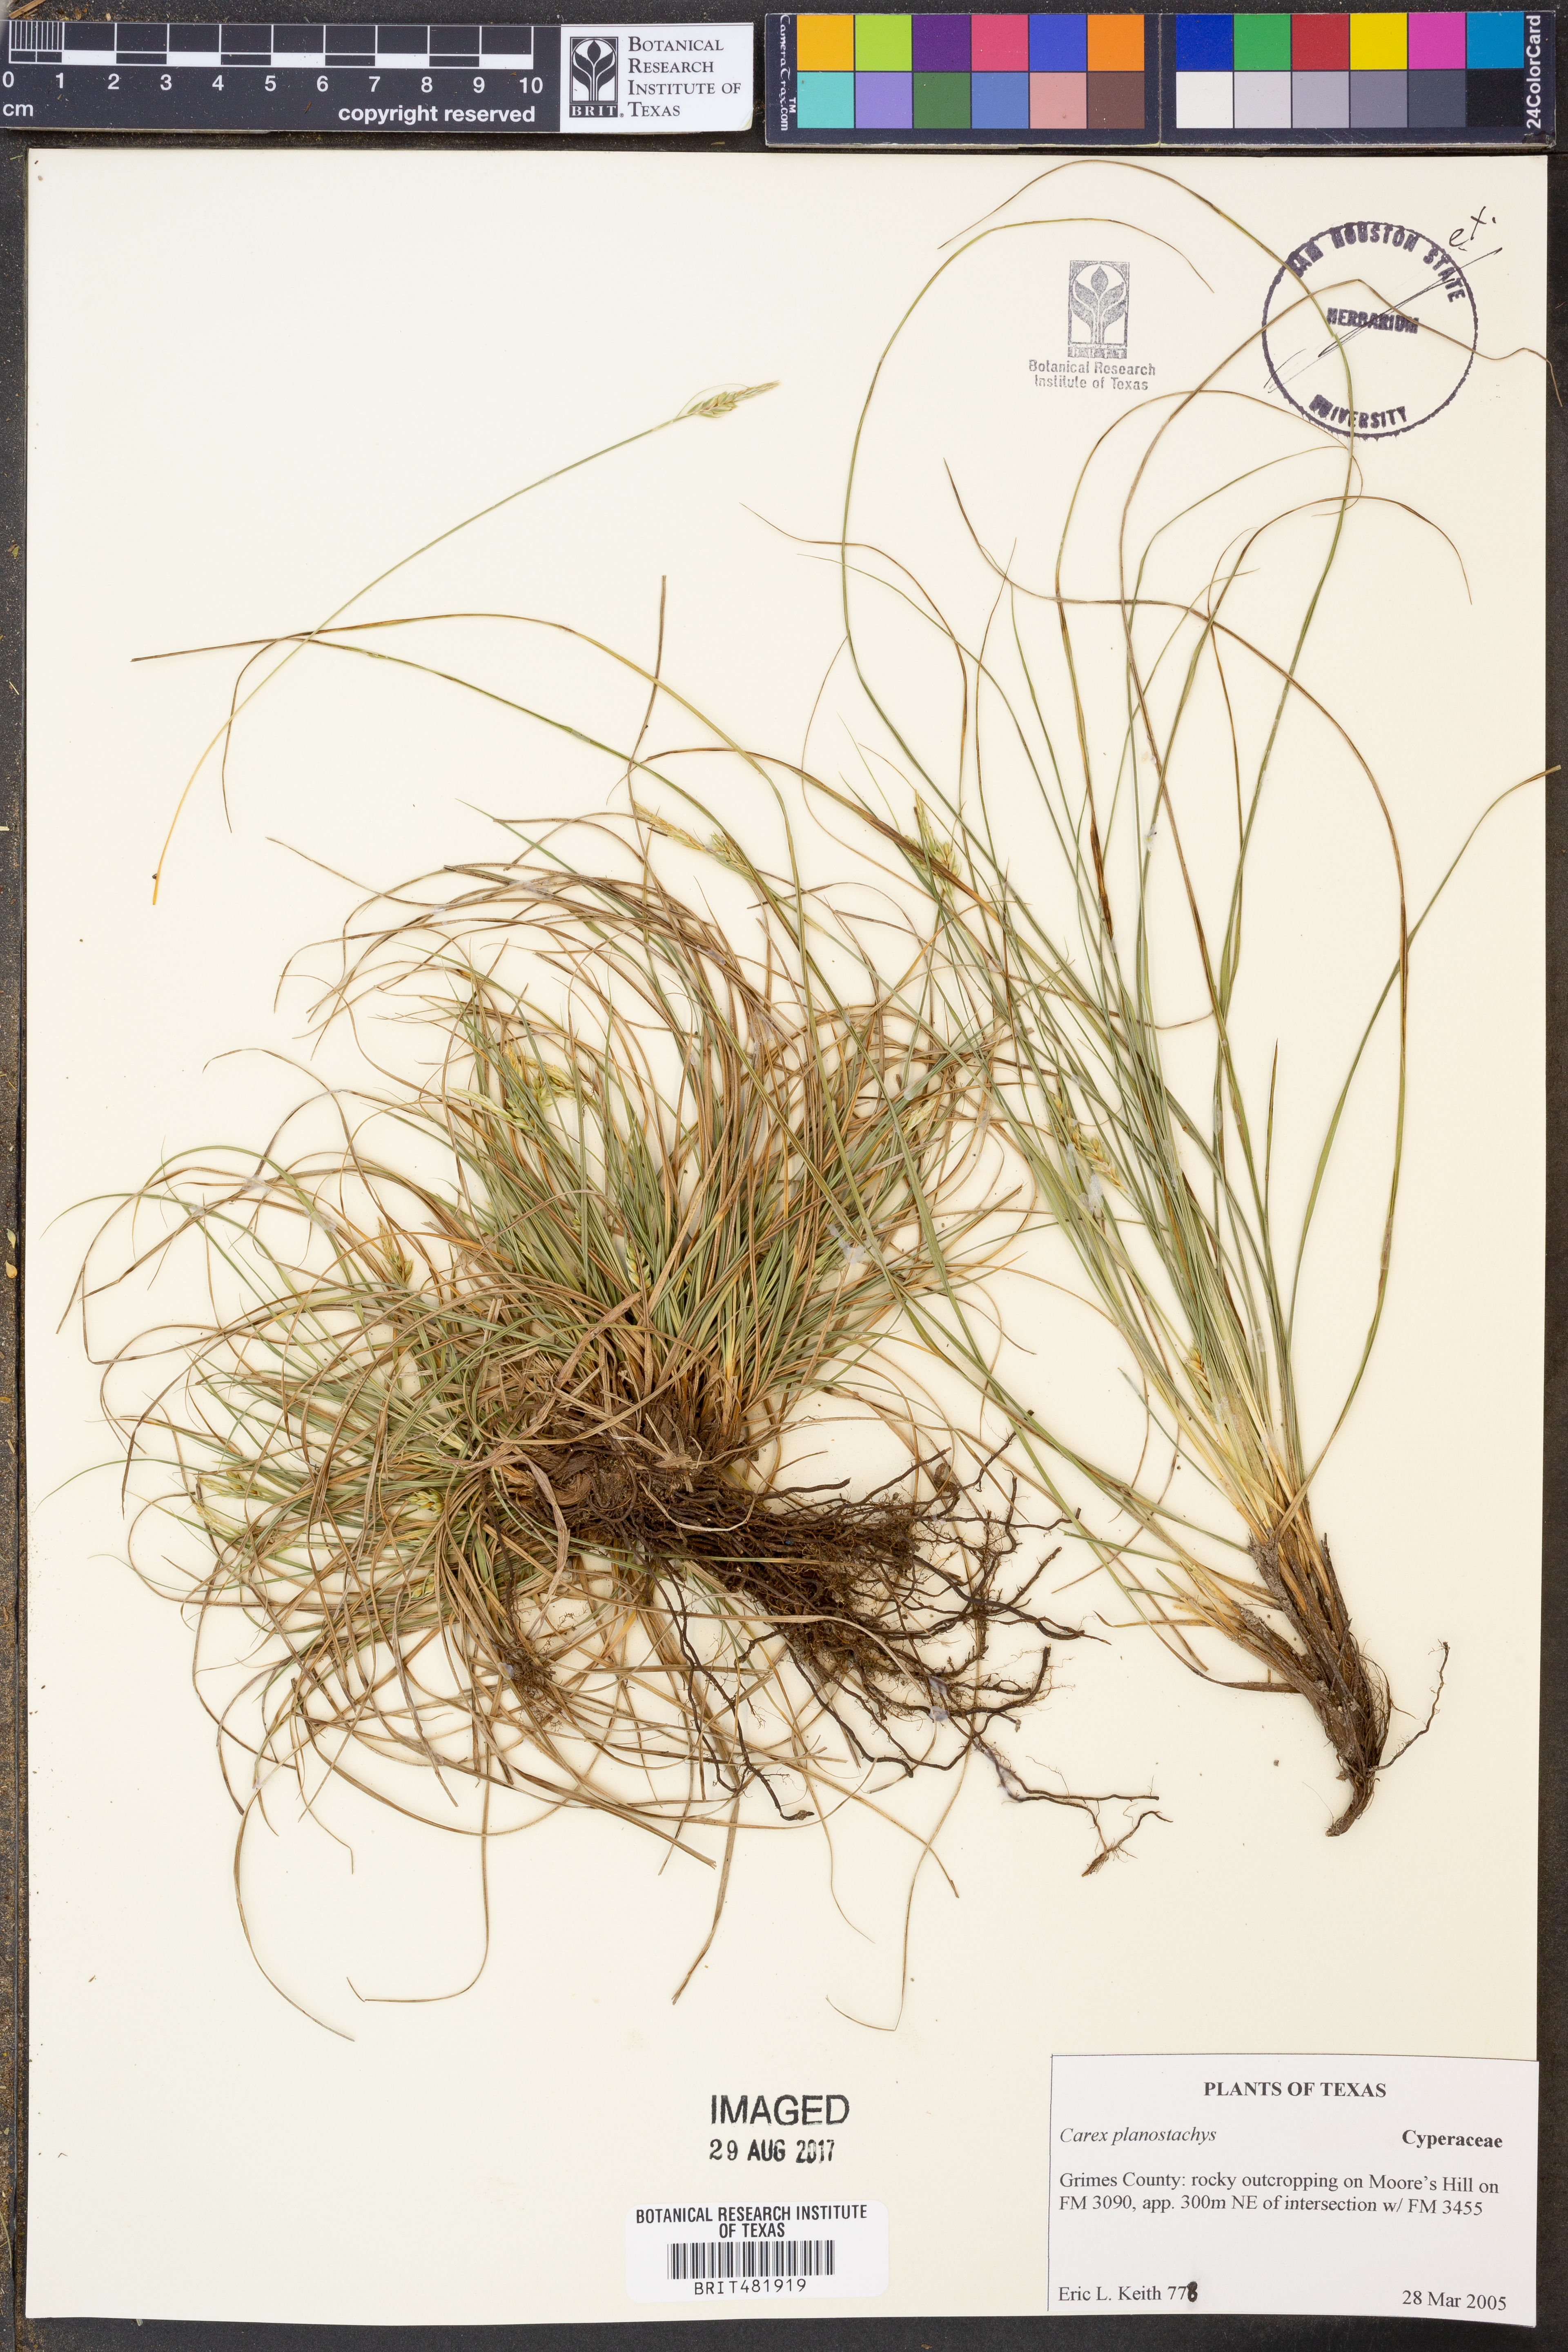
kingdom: Plantae
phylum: Tracheophyta
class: Liliopsida
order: Poales
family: Cyperaceae
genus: Carex
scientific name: Carex planostachys
